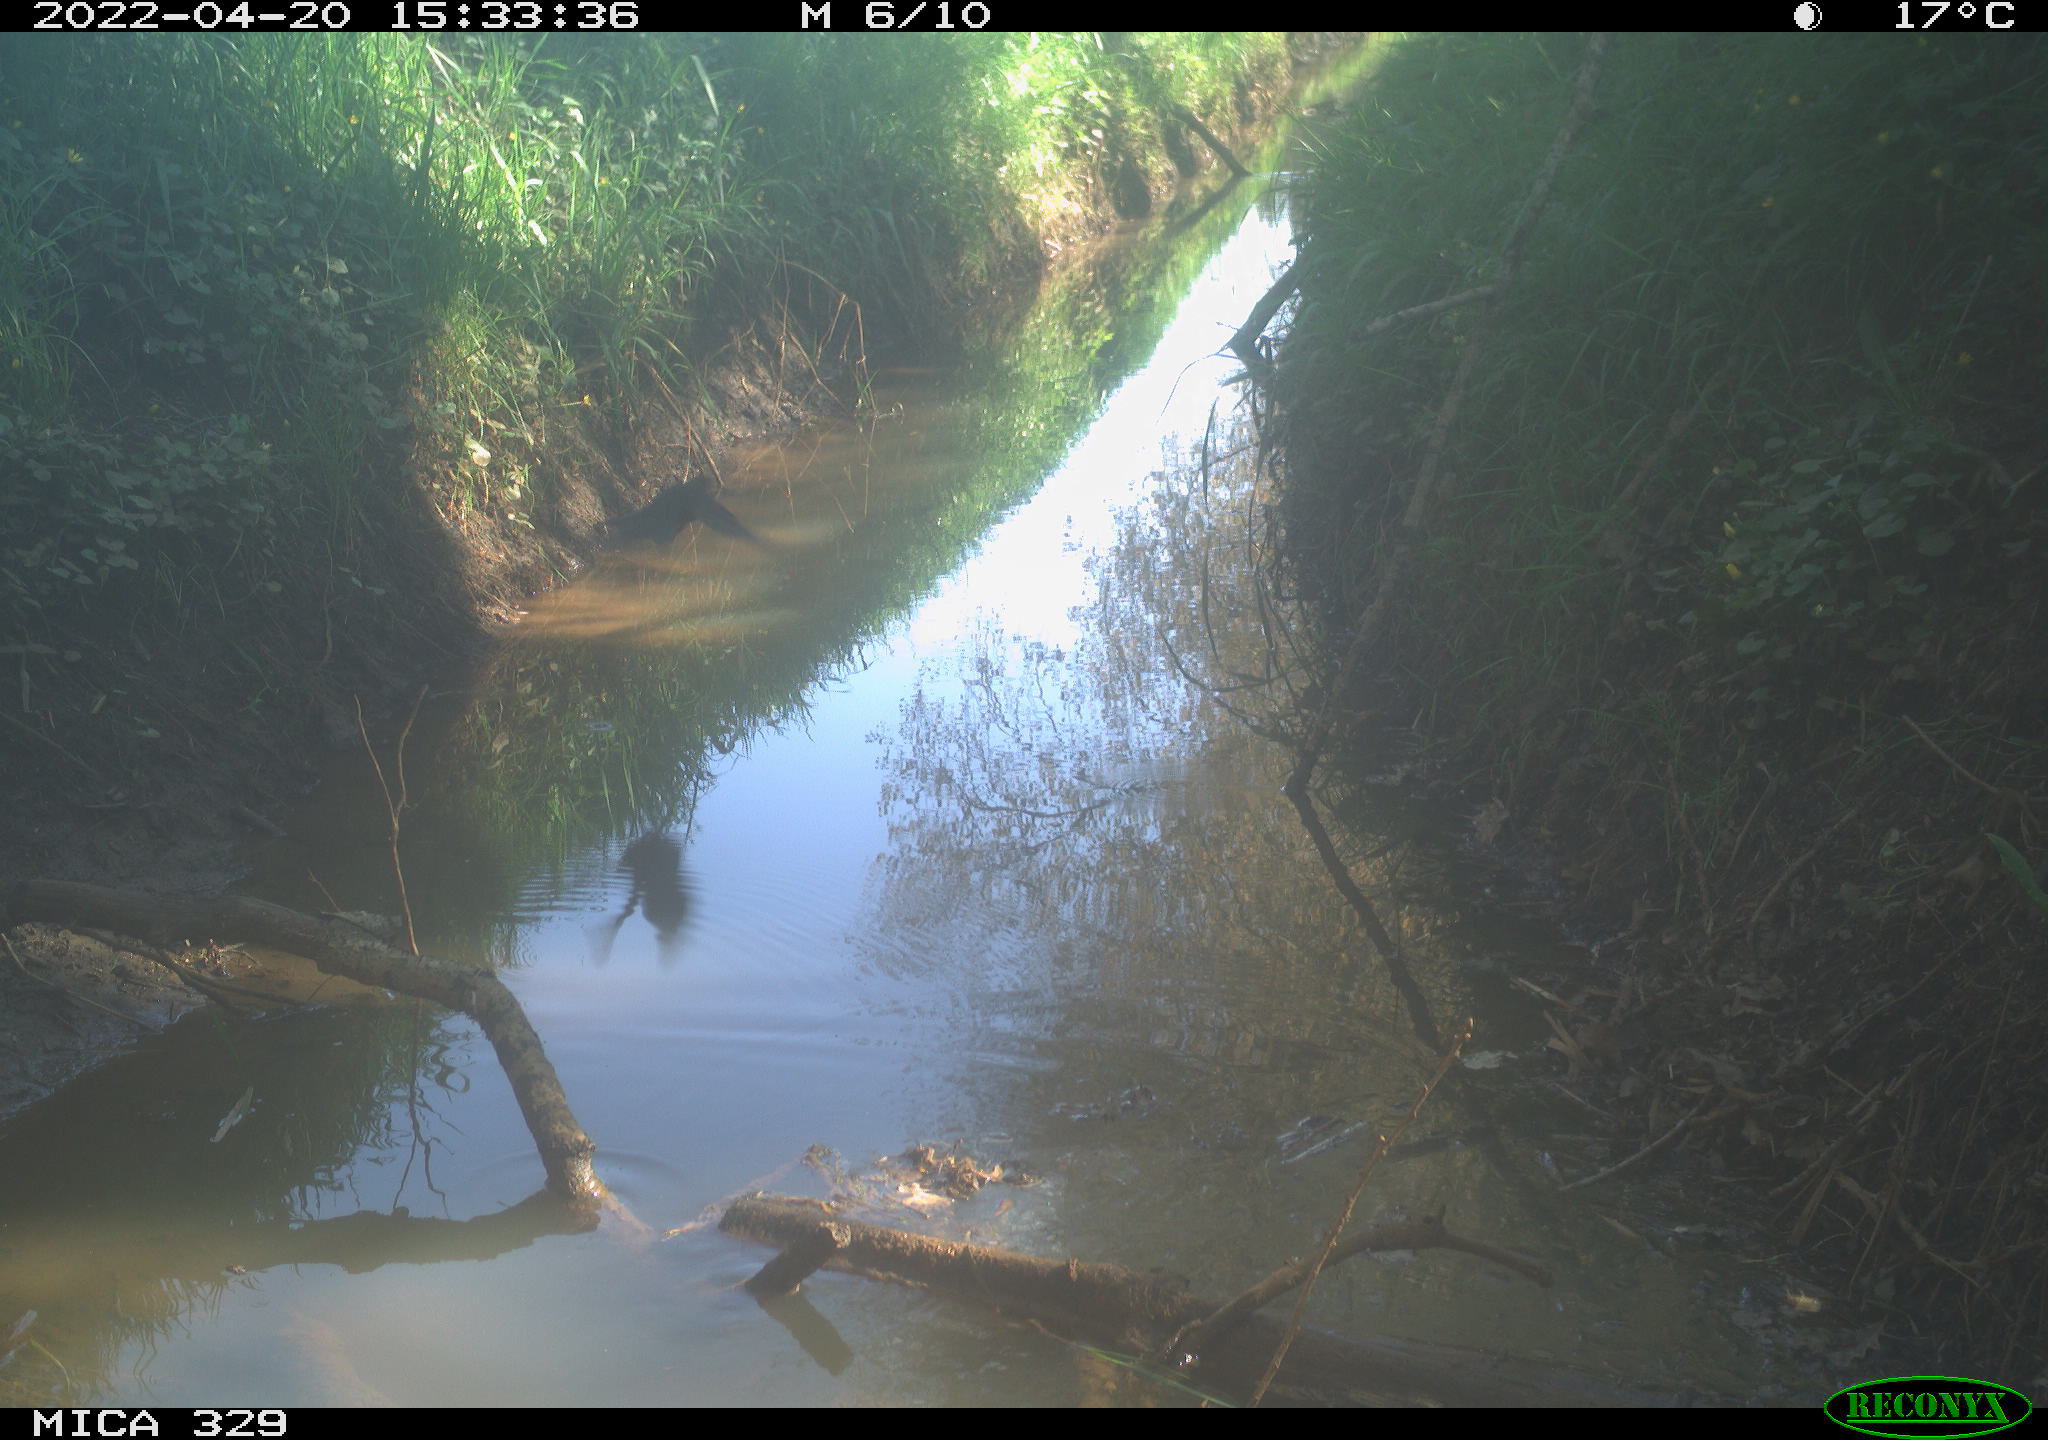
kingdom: Animalia
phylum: Chordata
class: Aves
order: Passeriformes
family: Turdidae
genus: Turdus
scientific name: Turdus merula
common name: Common blackbird
